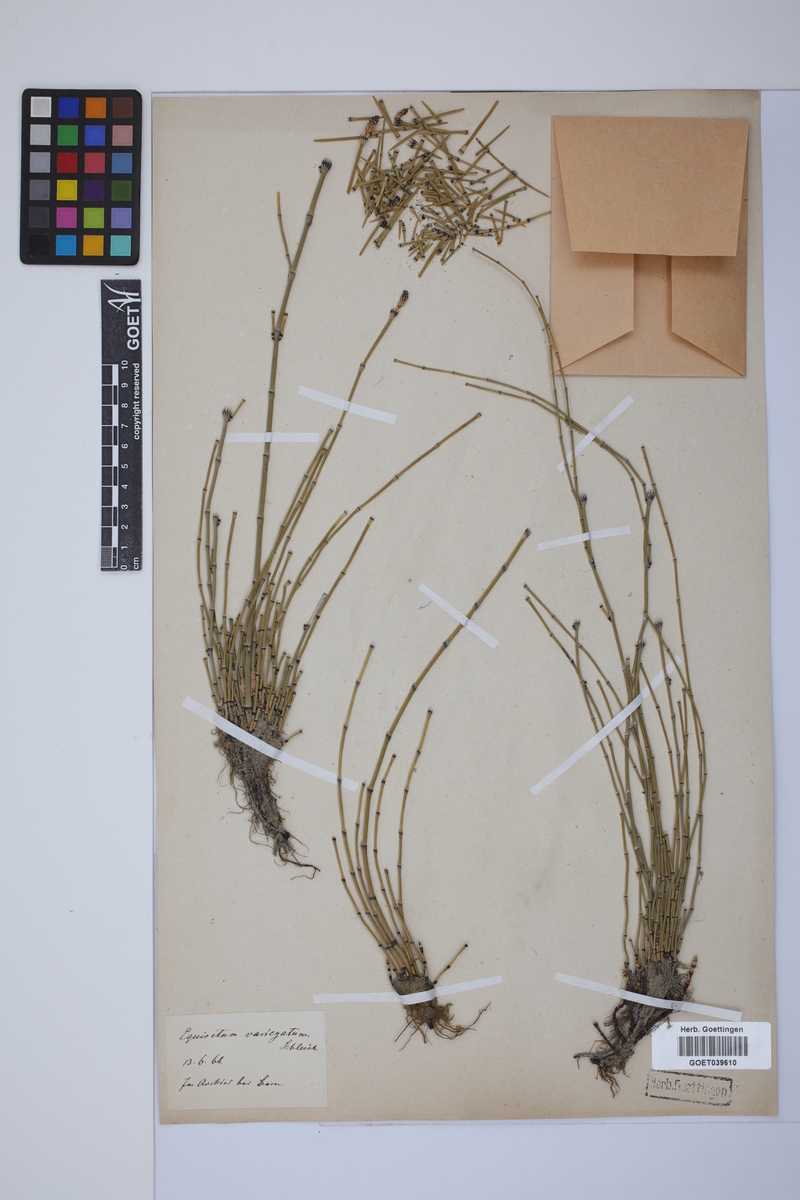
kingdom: Plantae
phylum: Tracheophyta
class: Polypodiopsida
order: Equisetales
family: Equisetaceae
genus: Equisetum
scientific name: Equisetum variegatum
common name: Variegated horsetail
